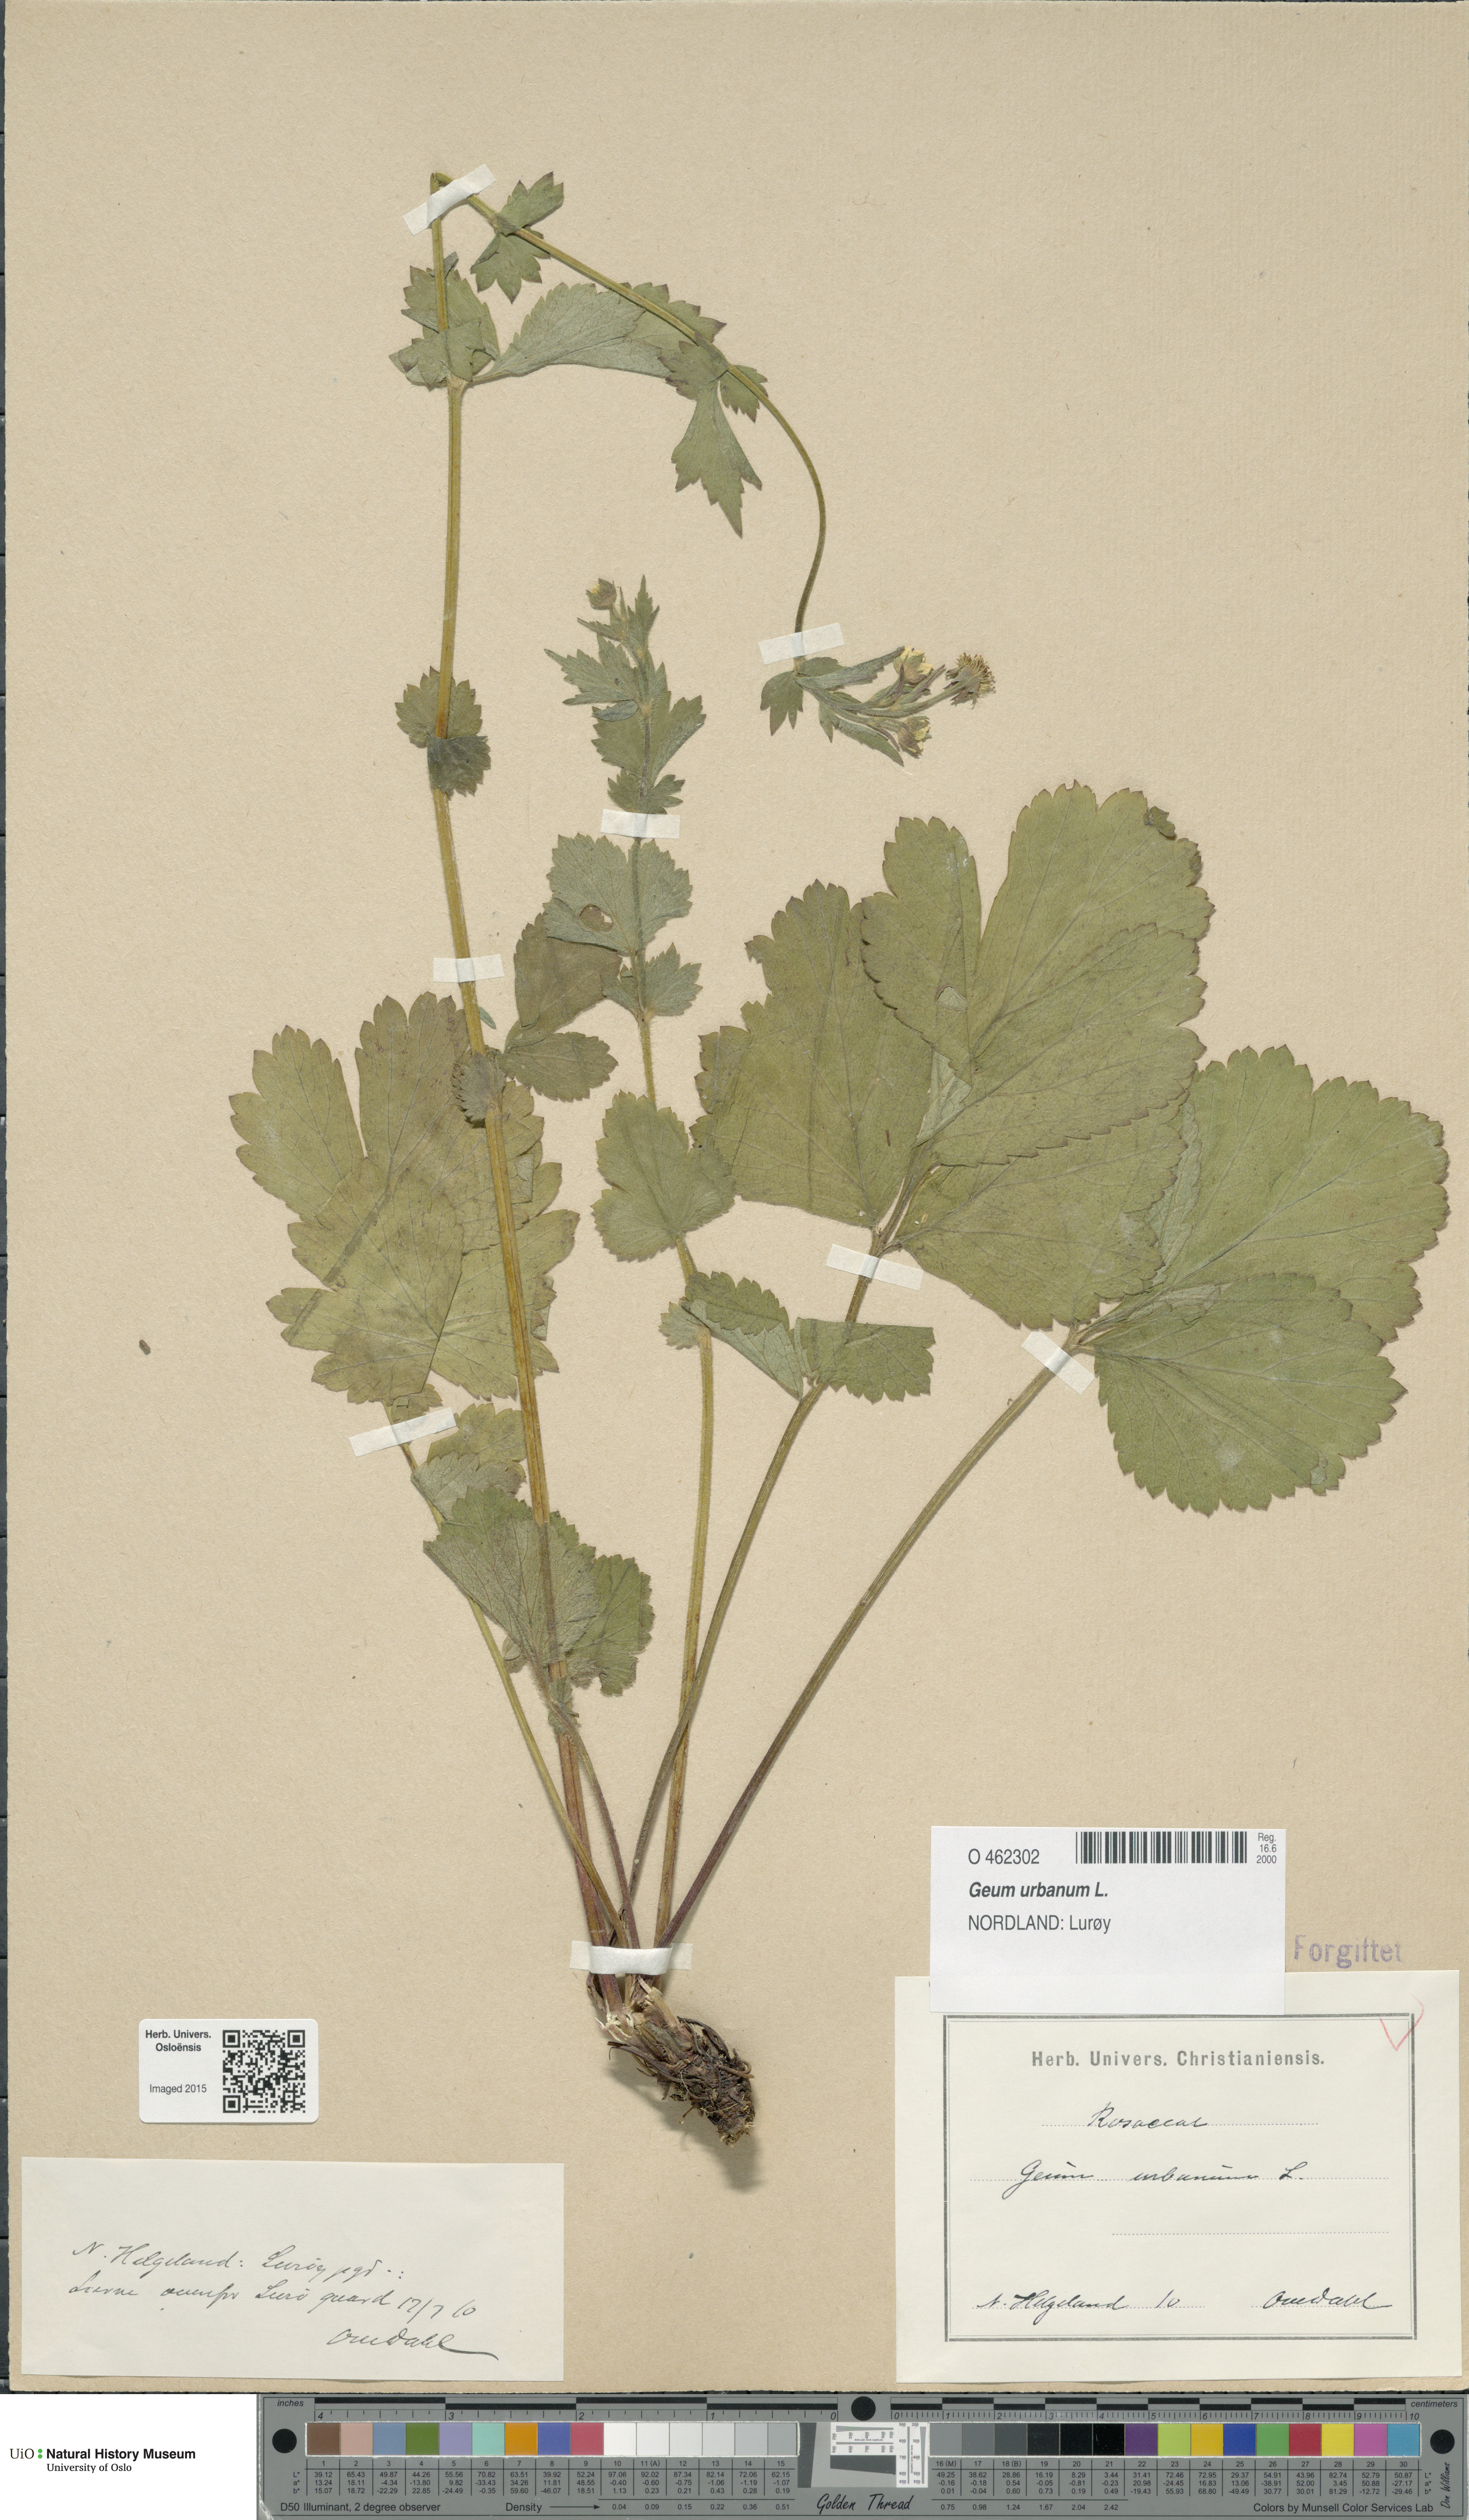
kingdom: Plantae
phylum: Tracheophyta
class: Magnoliopsida
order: Rosales
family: Rosaceae
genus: Geum
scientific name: Geum urbanum
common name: Wood avens
